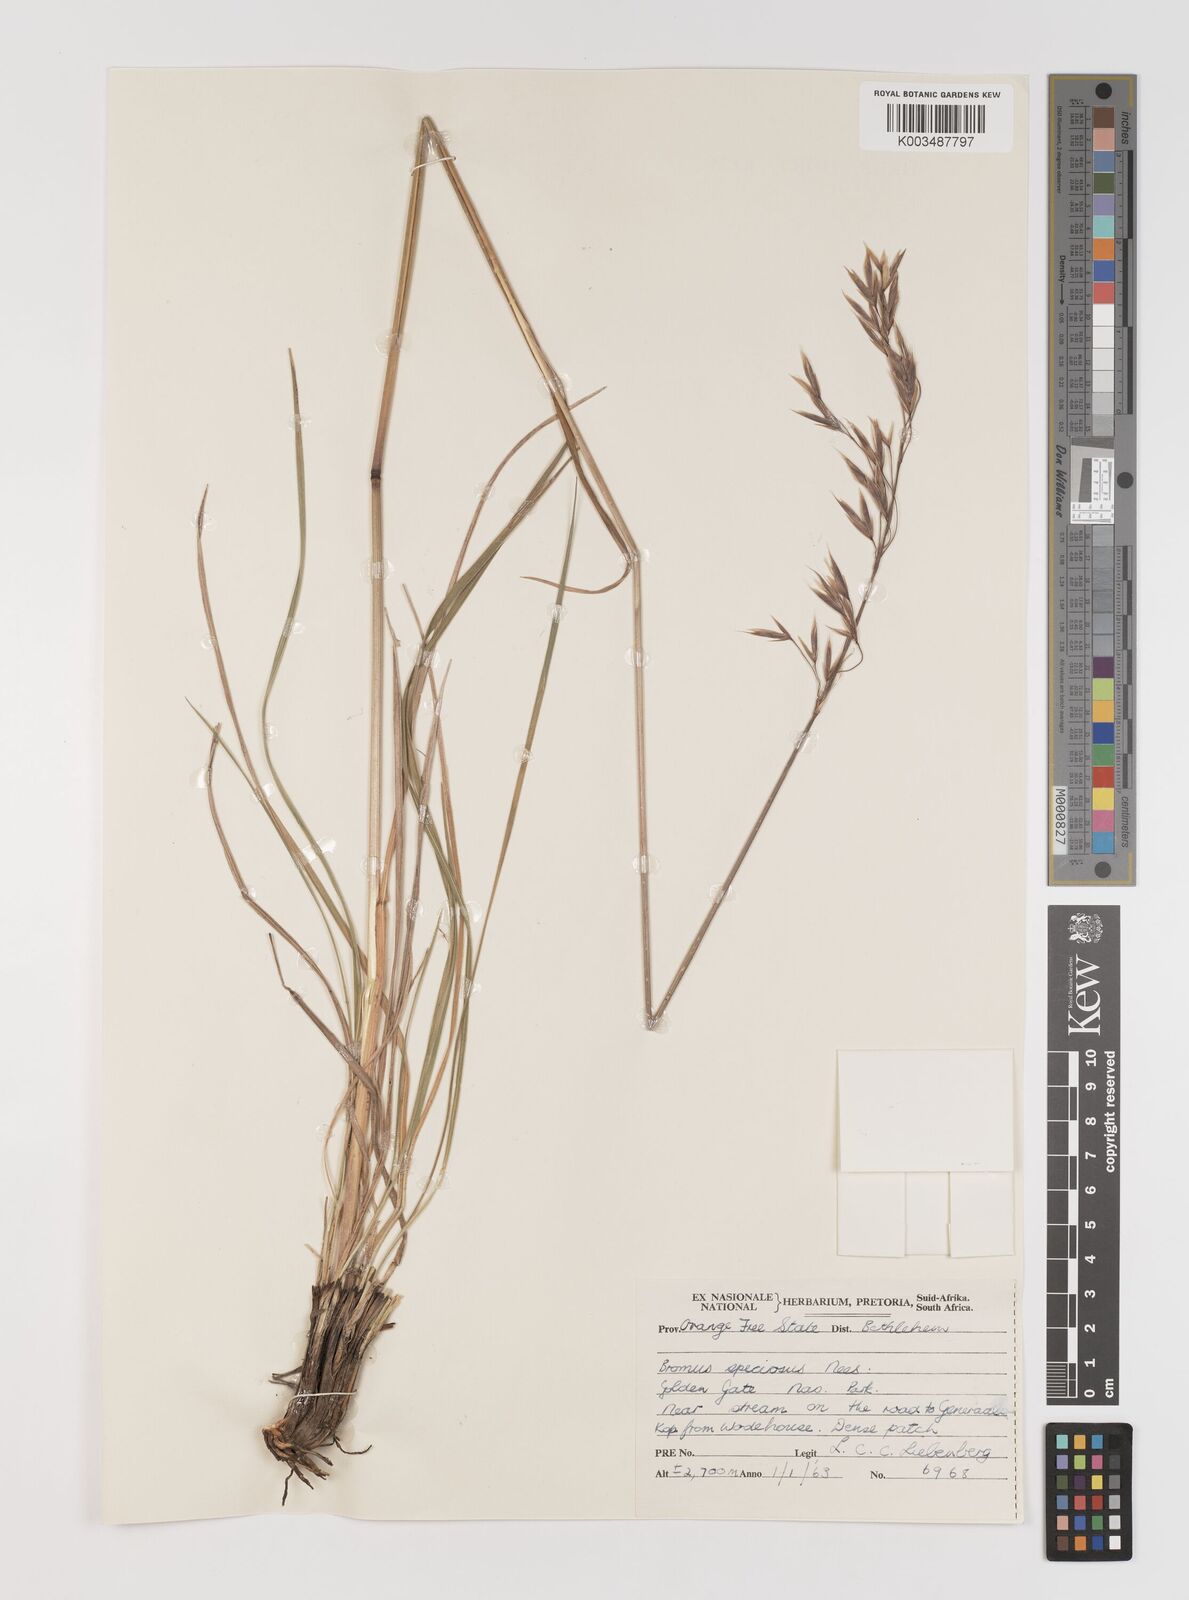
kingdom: Plantae
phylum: Tracheophyta
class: Liliopsida
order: Poales
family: Poaceae
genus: Bromus
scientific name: Bromus speciosus
